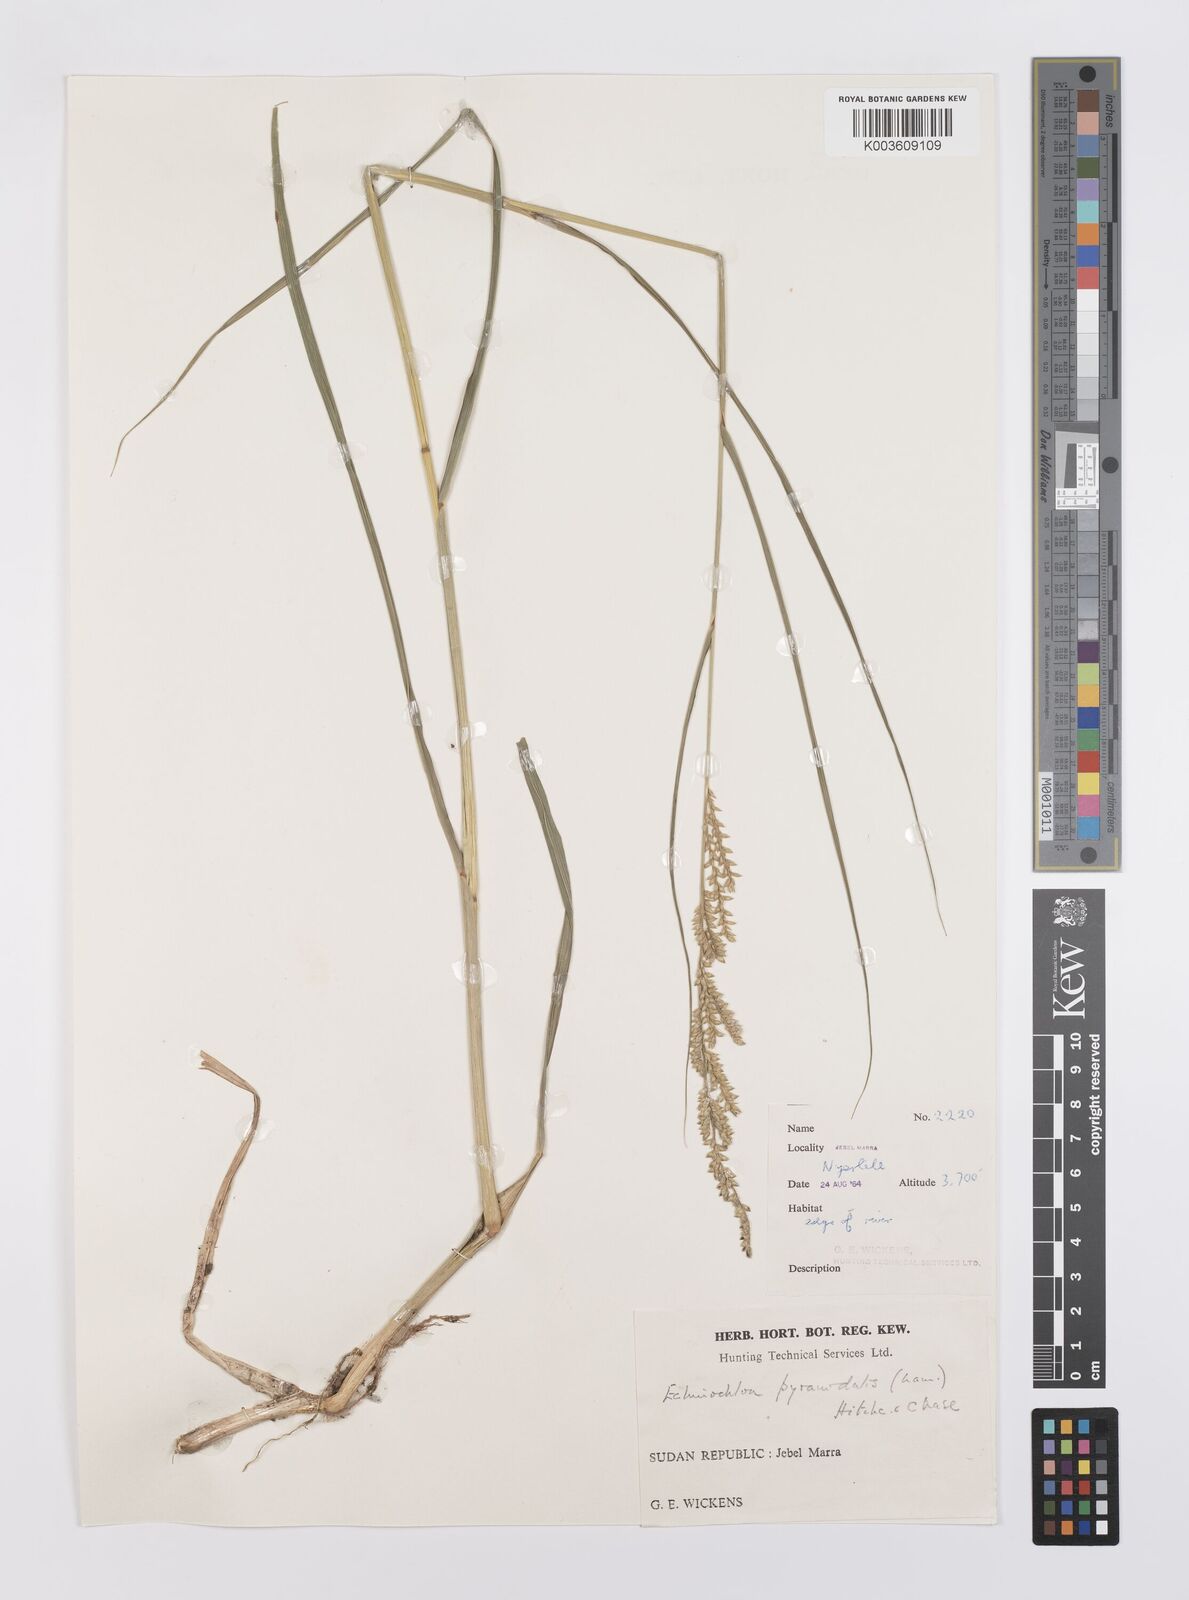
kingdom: Plantae
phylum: Tracheophyta
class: Liliopsida
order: Poales
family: Poaceae
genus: Echinochloa
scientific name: Echinochloa pyramidalis
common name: Antelope grass
